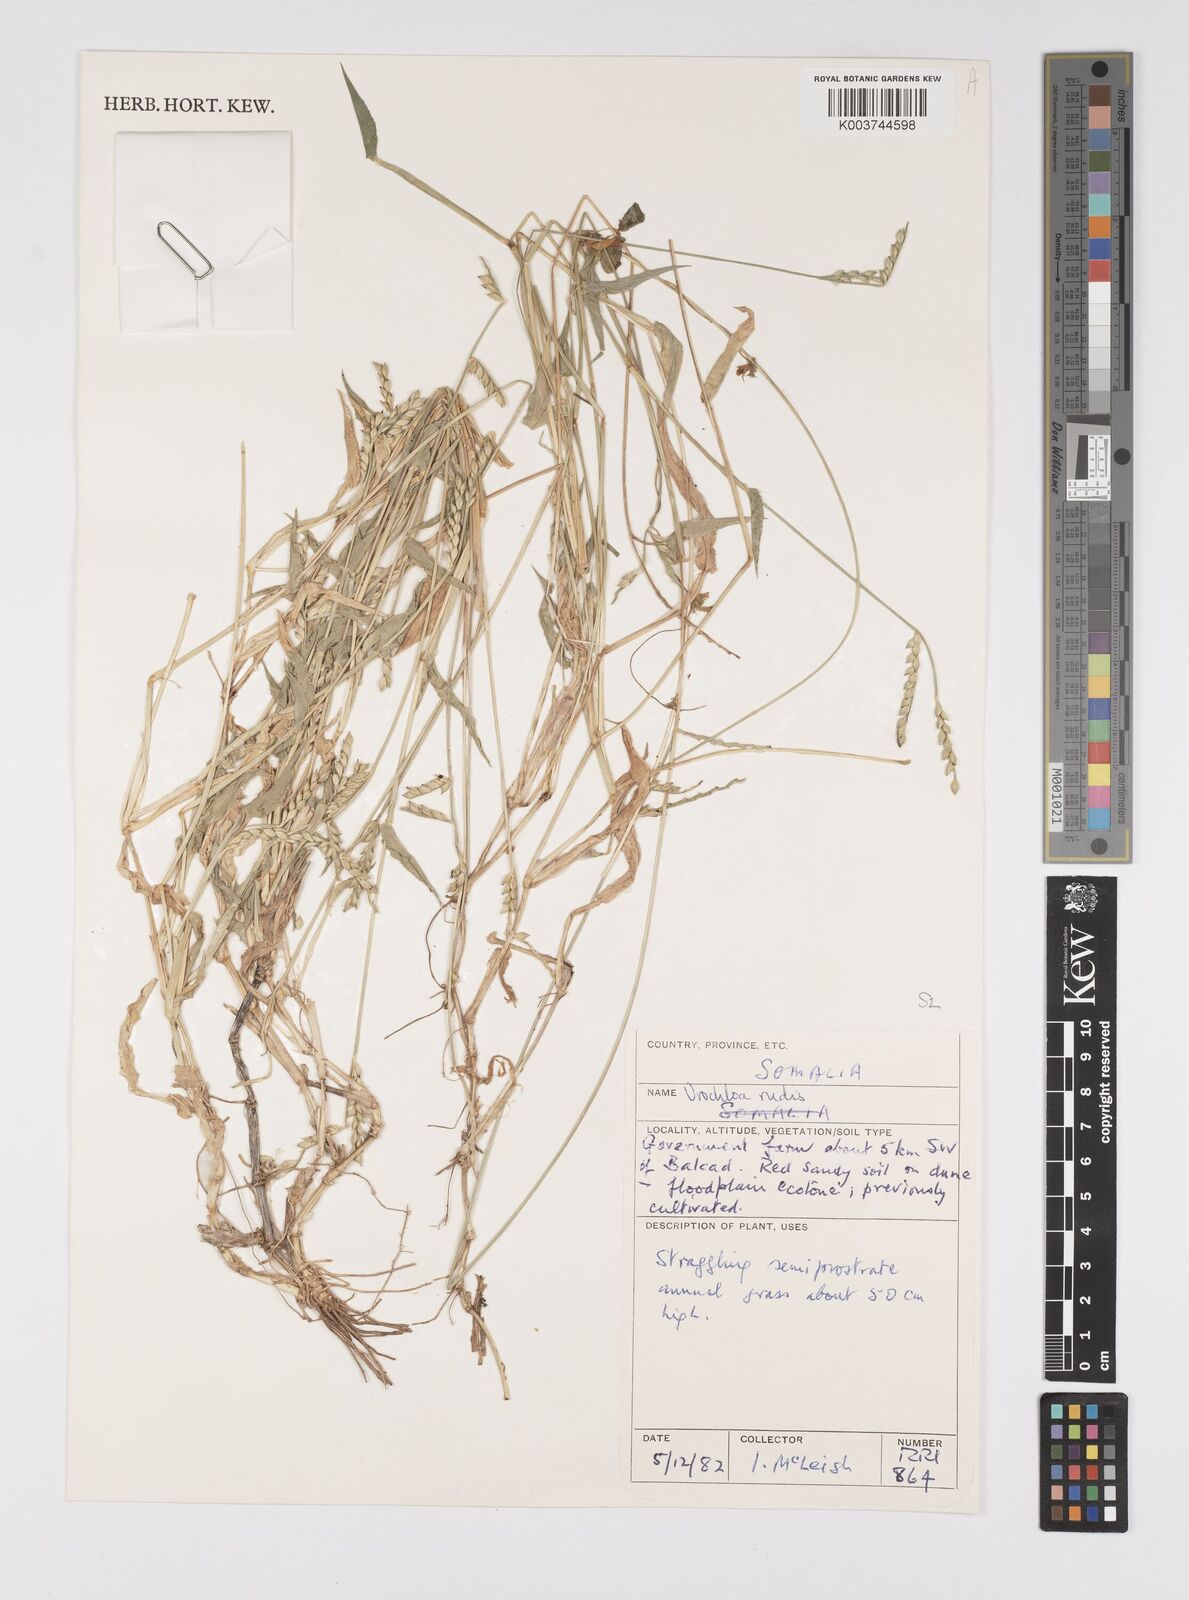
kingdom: Plantae
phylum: Tracheophyta
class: Liliopsida
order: Poales
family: Poaceae
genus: Urochloa
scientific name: Urochloa rudis
